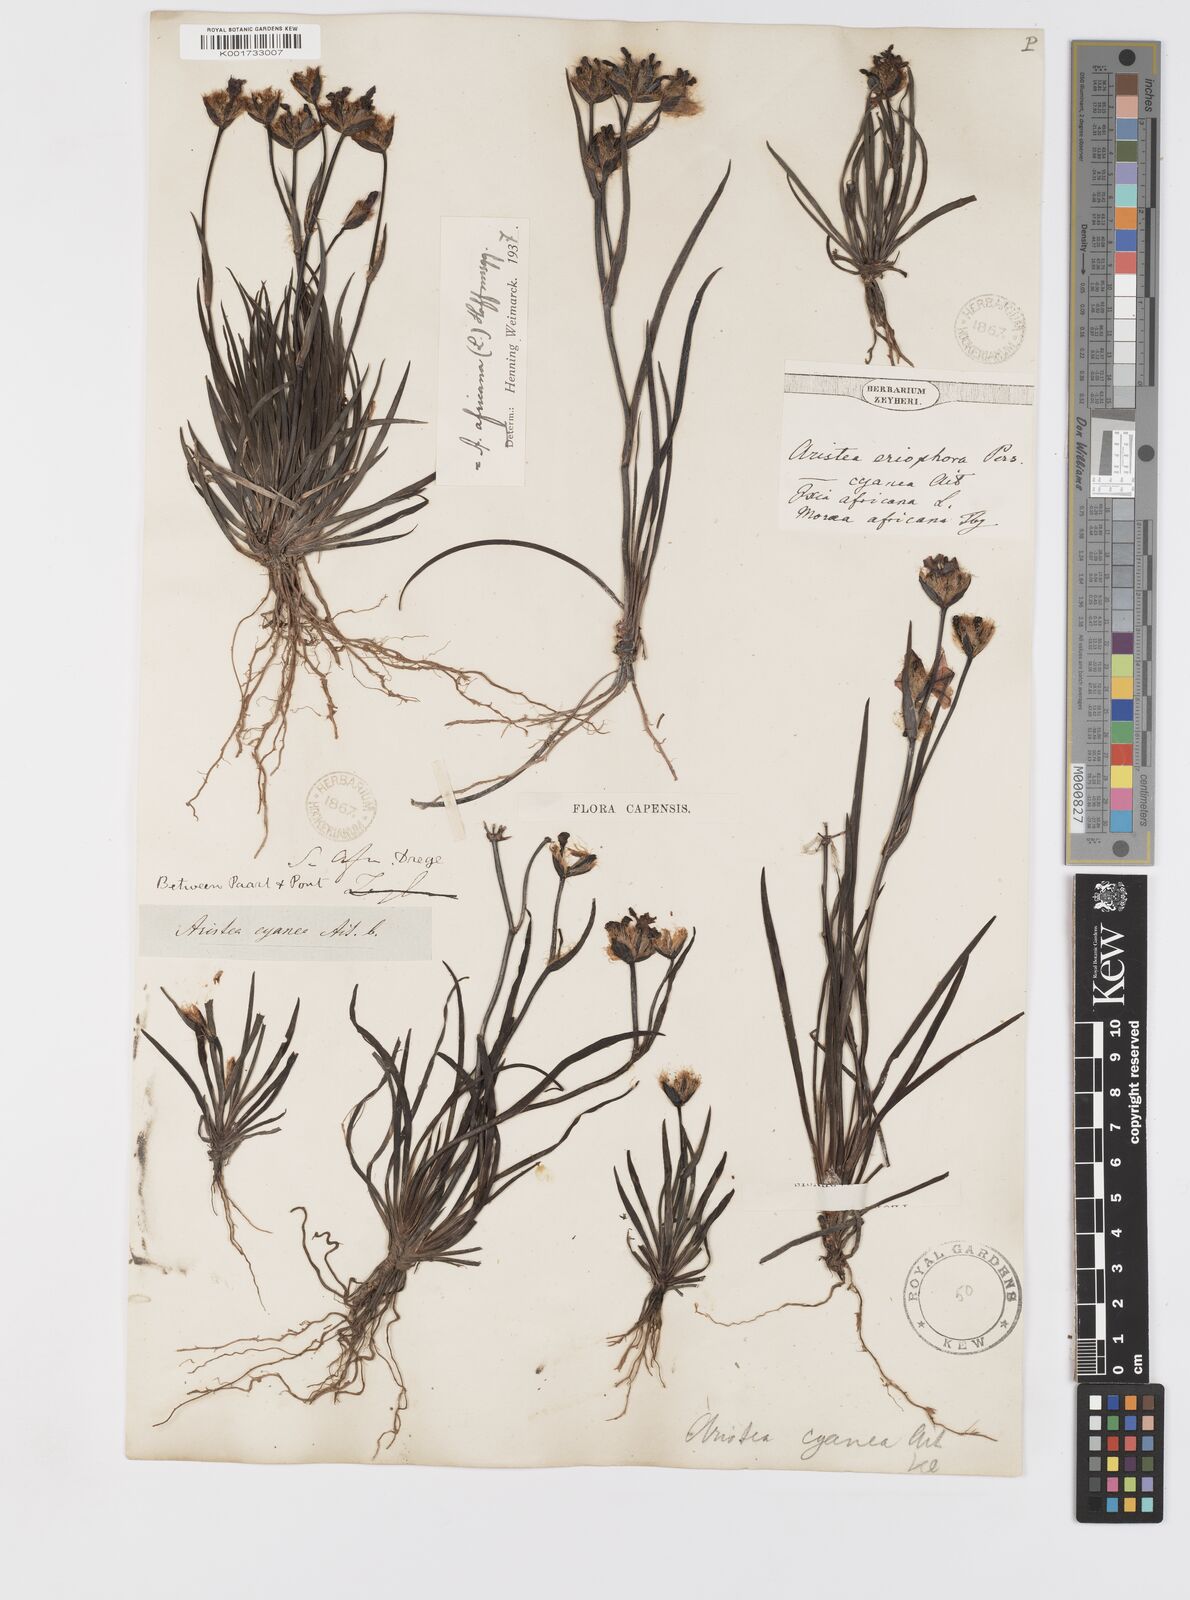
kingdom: Plantae
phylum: Tracheophyta
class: Liliopsida
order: Asparagales
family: Iridaceae
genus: Aristea
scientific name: Aristea africana
